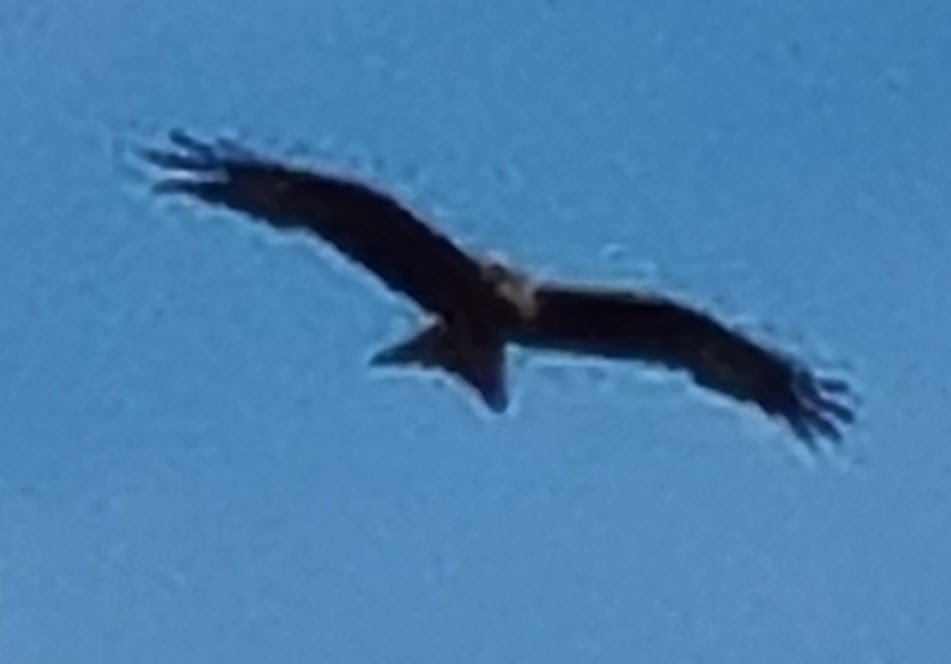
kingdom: Animalia
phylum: Chordata
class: Aves
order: Accipitriformes
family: Accipitridae
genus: Milvus
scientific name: Milvus milvus
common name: Rød glente
